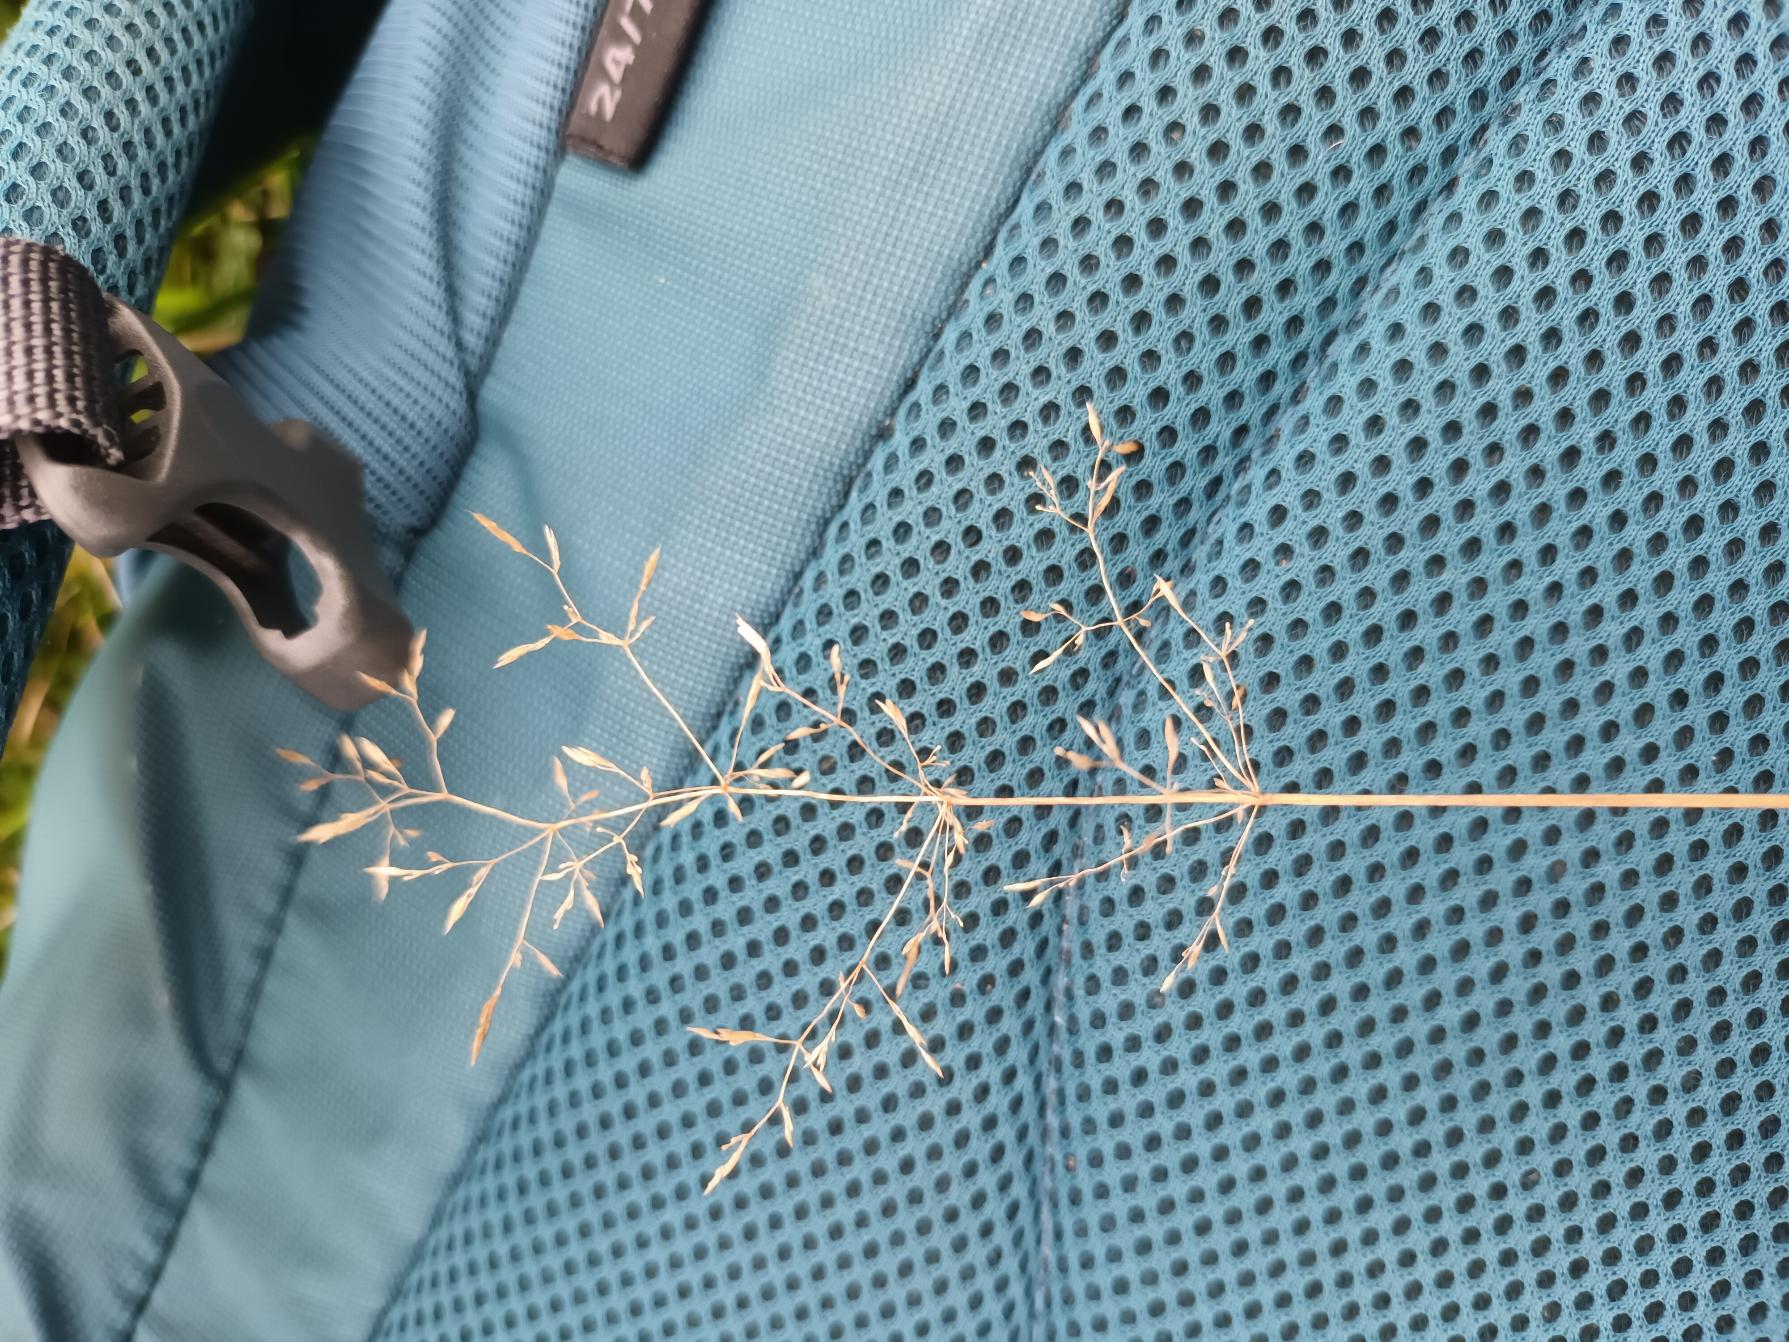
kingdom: Plantae
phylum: Tracheophyta
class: Liliopsida
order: Poales
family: Poaceae
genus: Agrostis
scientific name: Agrostis capillaris
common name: Almindelig hvene
